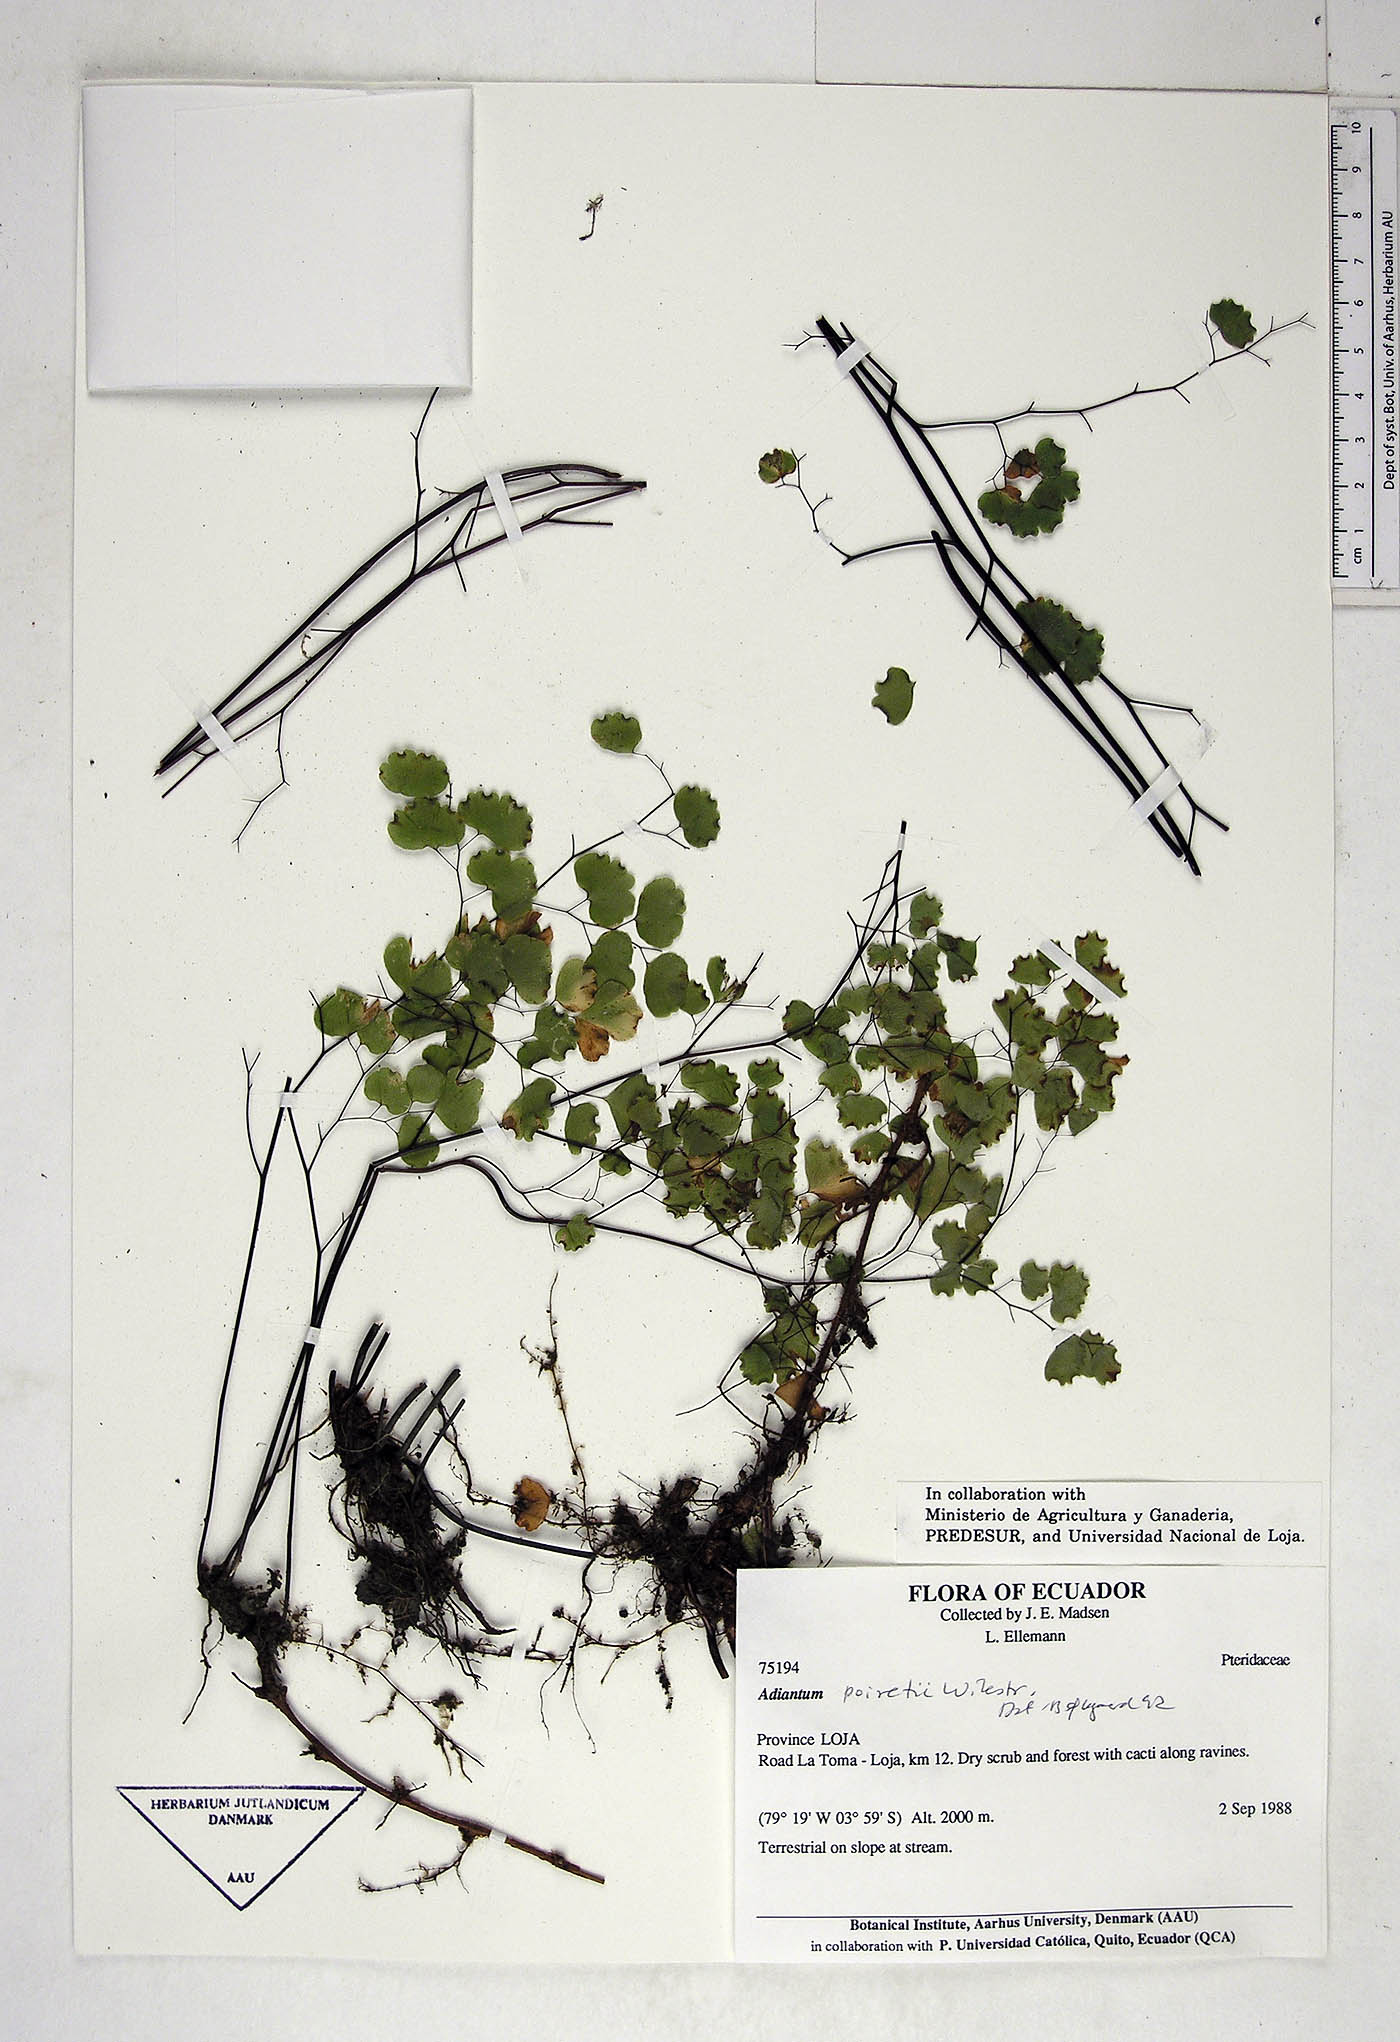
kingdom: Plantae
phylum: Tracheophyta
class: Polypodiopsida
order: Polypodiales
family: Pteridaceae
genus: Adiantum
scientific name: Adiantum poiretii
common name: Mexican maidenhair
